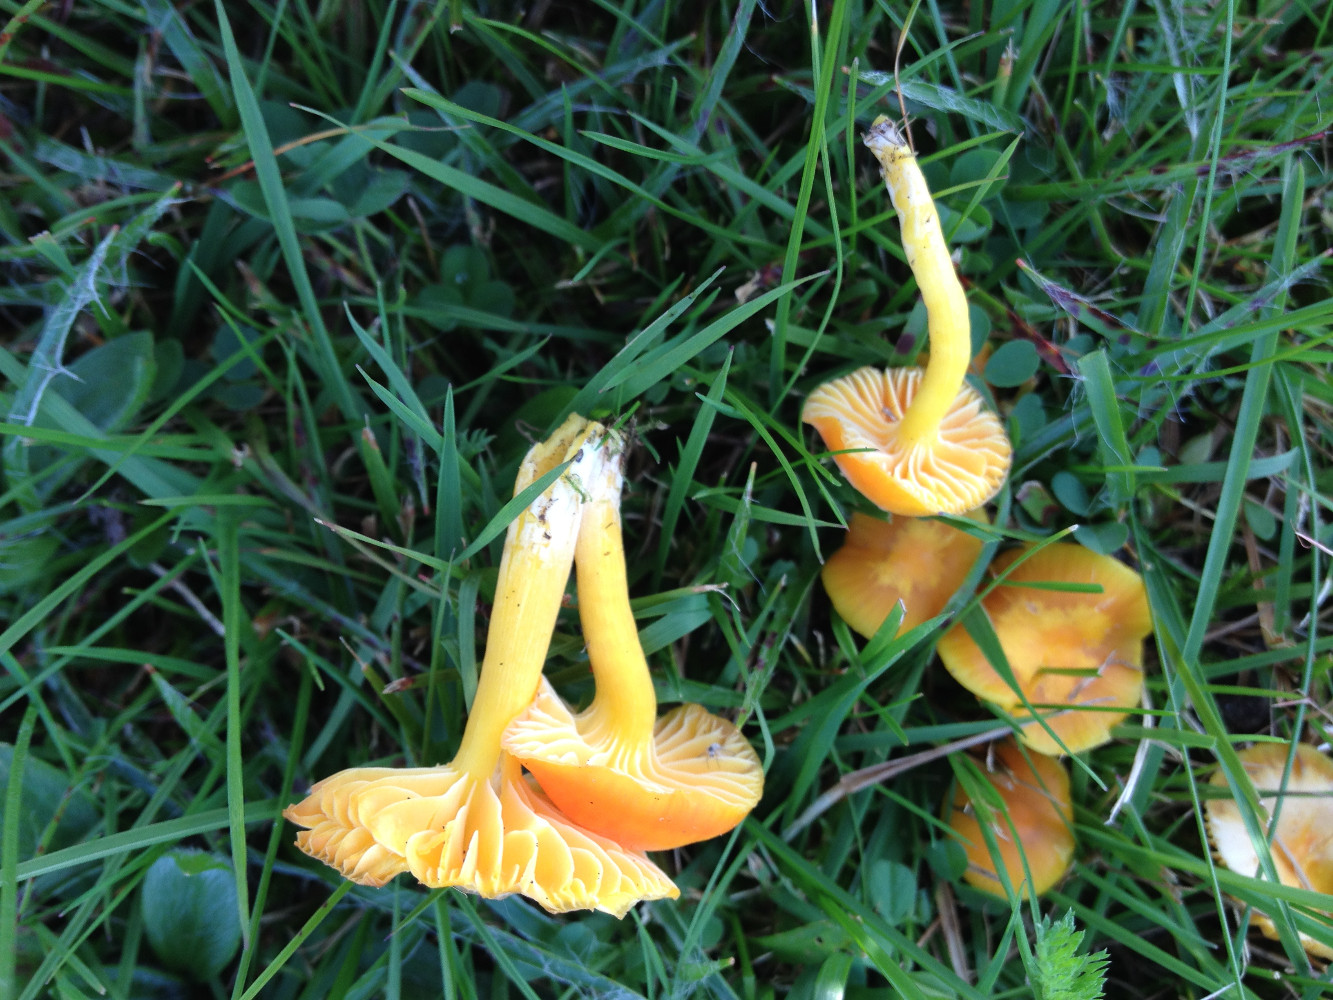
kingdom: Fungi
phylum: Basidiomycota
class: Agaricomycetes
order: Agaricales
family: Hygrophoraceae
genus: Hygrocybe
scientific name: Hygrocybe ceracea
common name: voksgul vokshat
